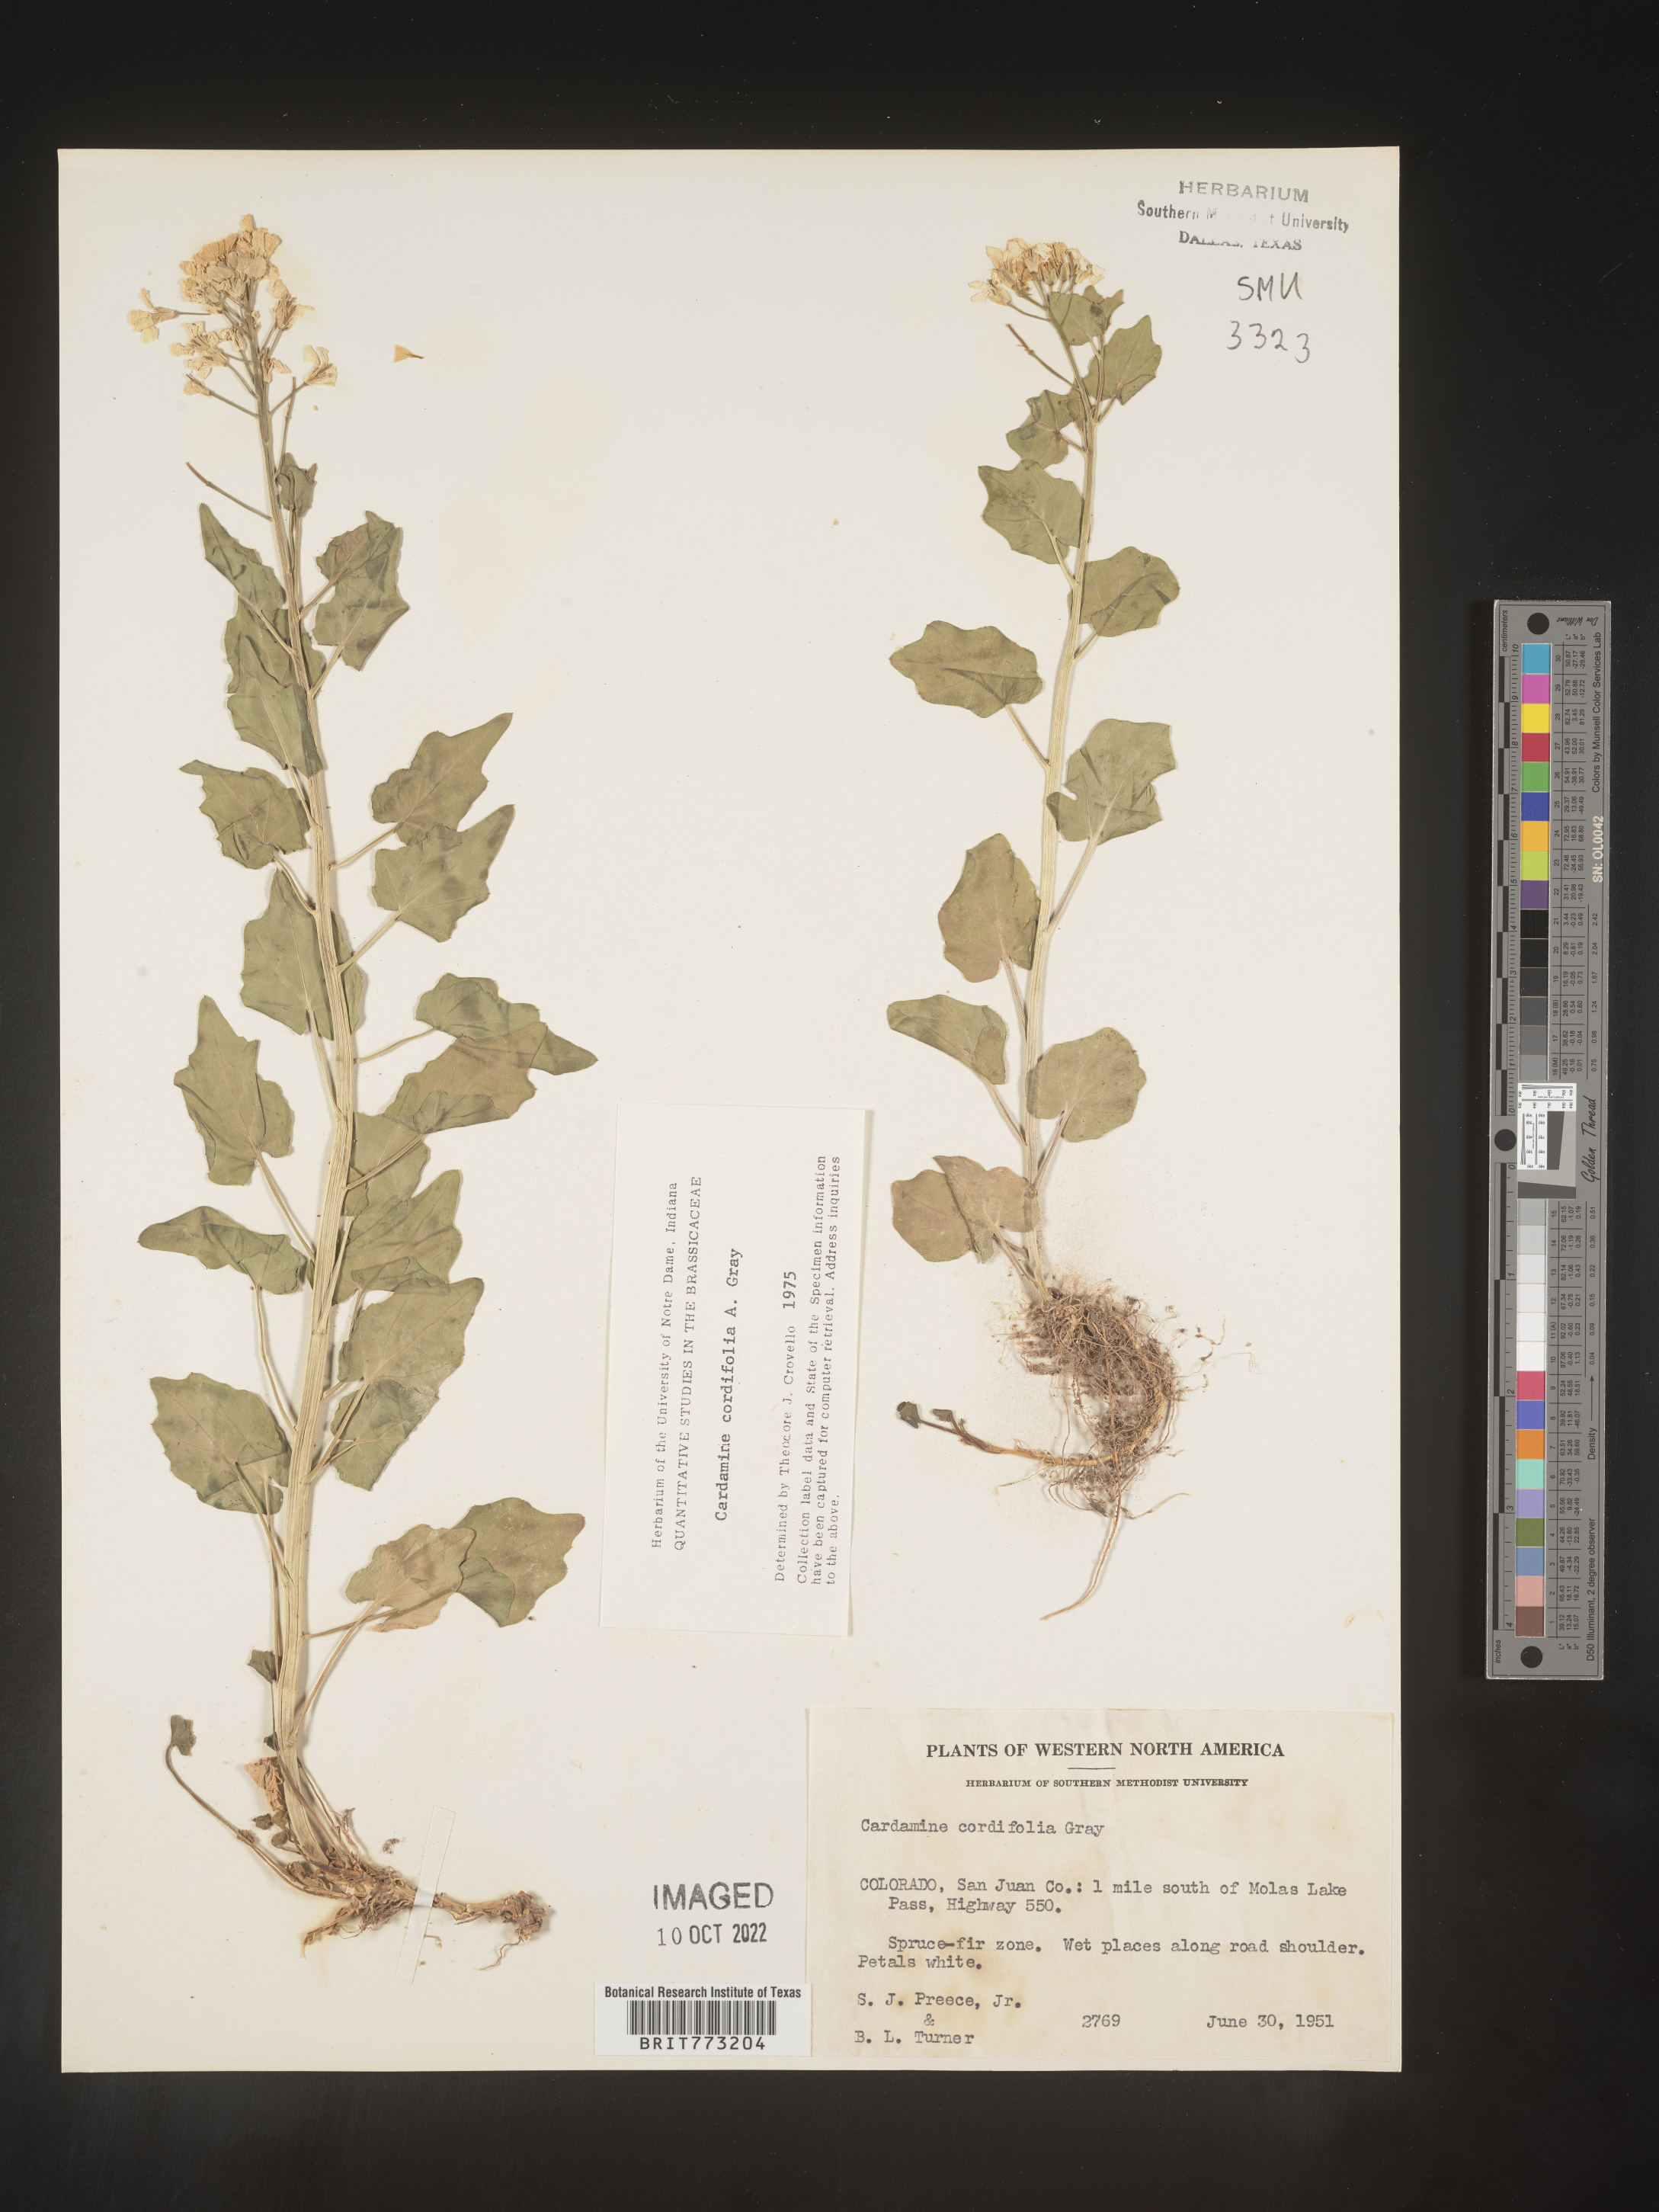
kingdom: Plantae
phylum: Tracheophyta
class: Magnoliopsida
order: Brassicales
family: Brassicaceae
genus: Cardamine
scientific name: Cardamine
